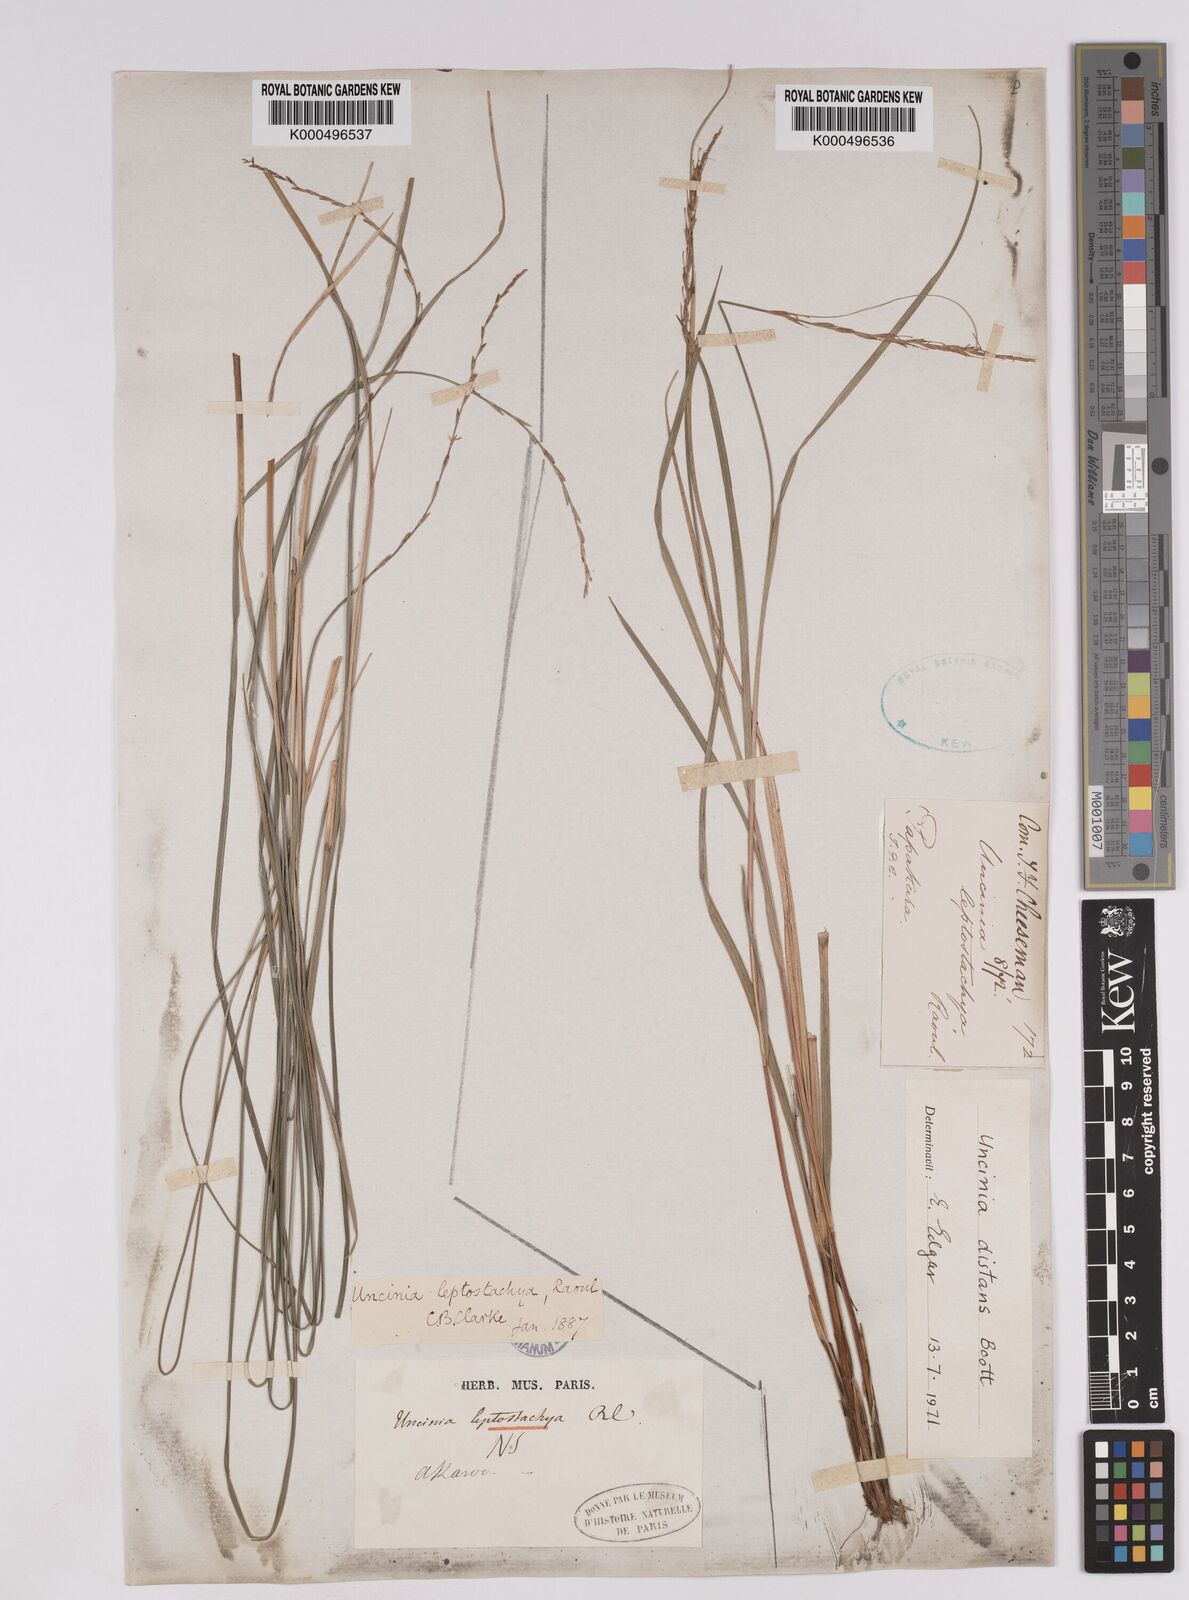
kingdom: Plantae
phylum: Tracheophyta
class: Liliopsida
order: Poales
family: Cyperaceae
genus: Carex
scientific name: Carex phleoides
